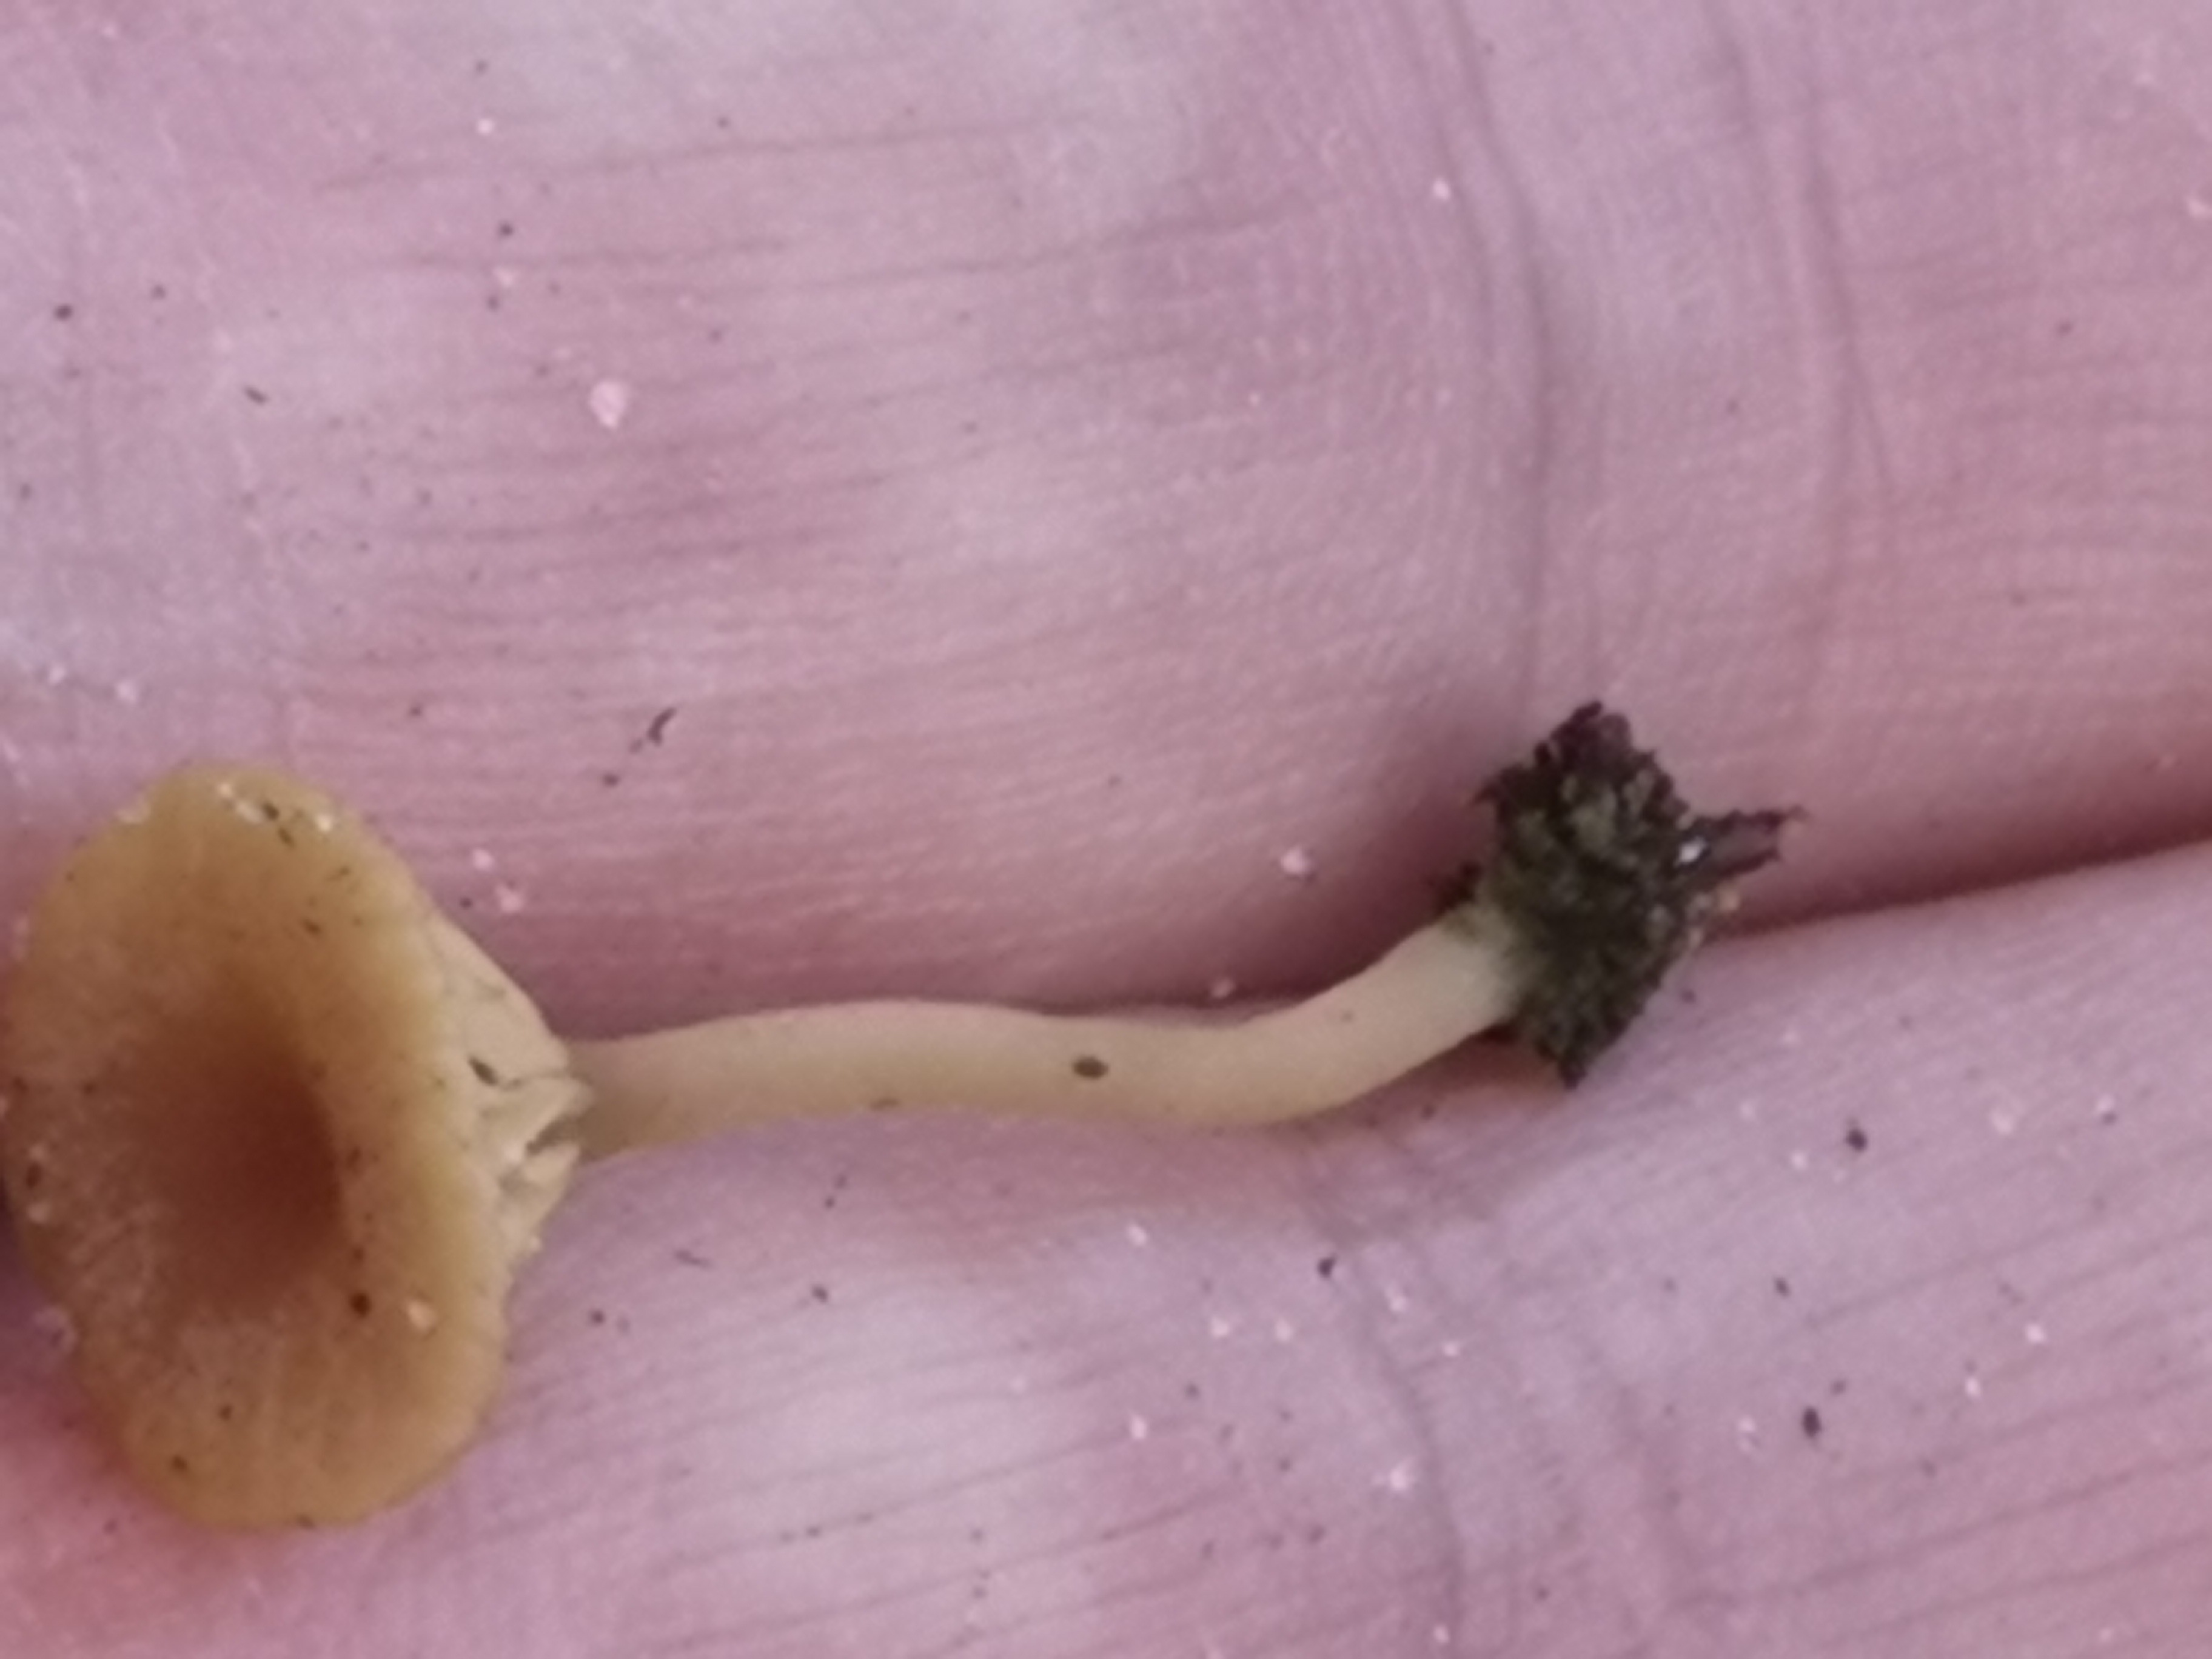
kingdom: Fungi
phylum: Basidiomycota
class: Agaricomycetes
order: Agaricales
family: Hygrophoraceae
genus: Lichenomphalia
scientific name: Lichenomphalia umbellifera
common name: tørve-lavhat
